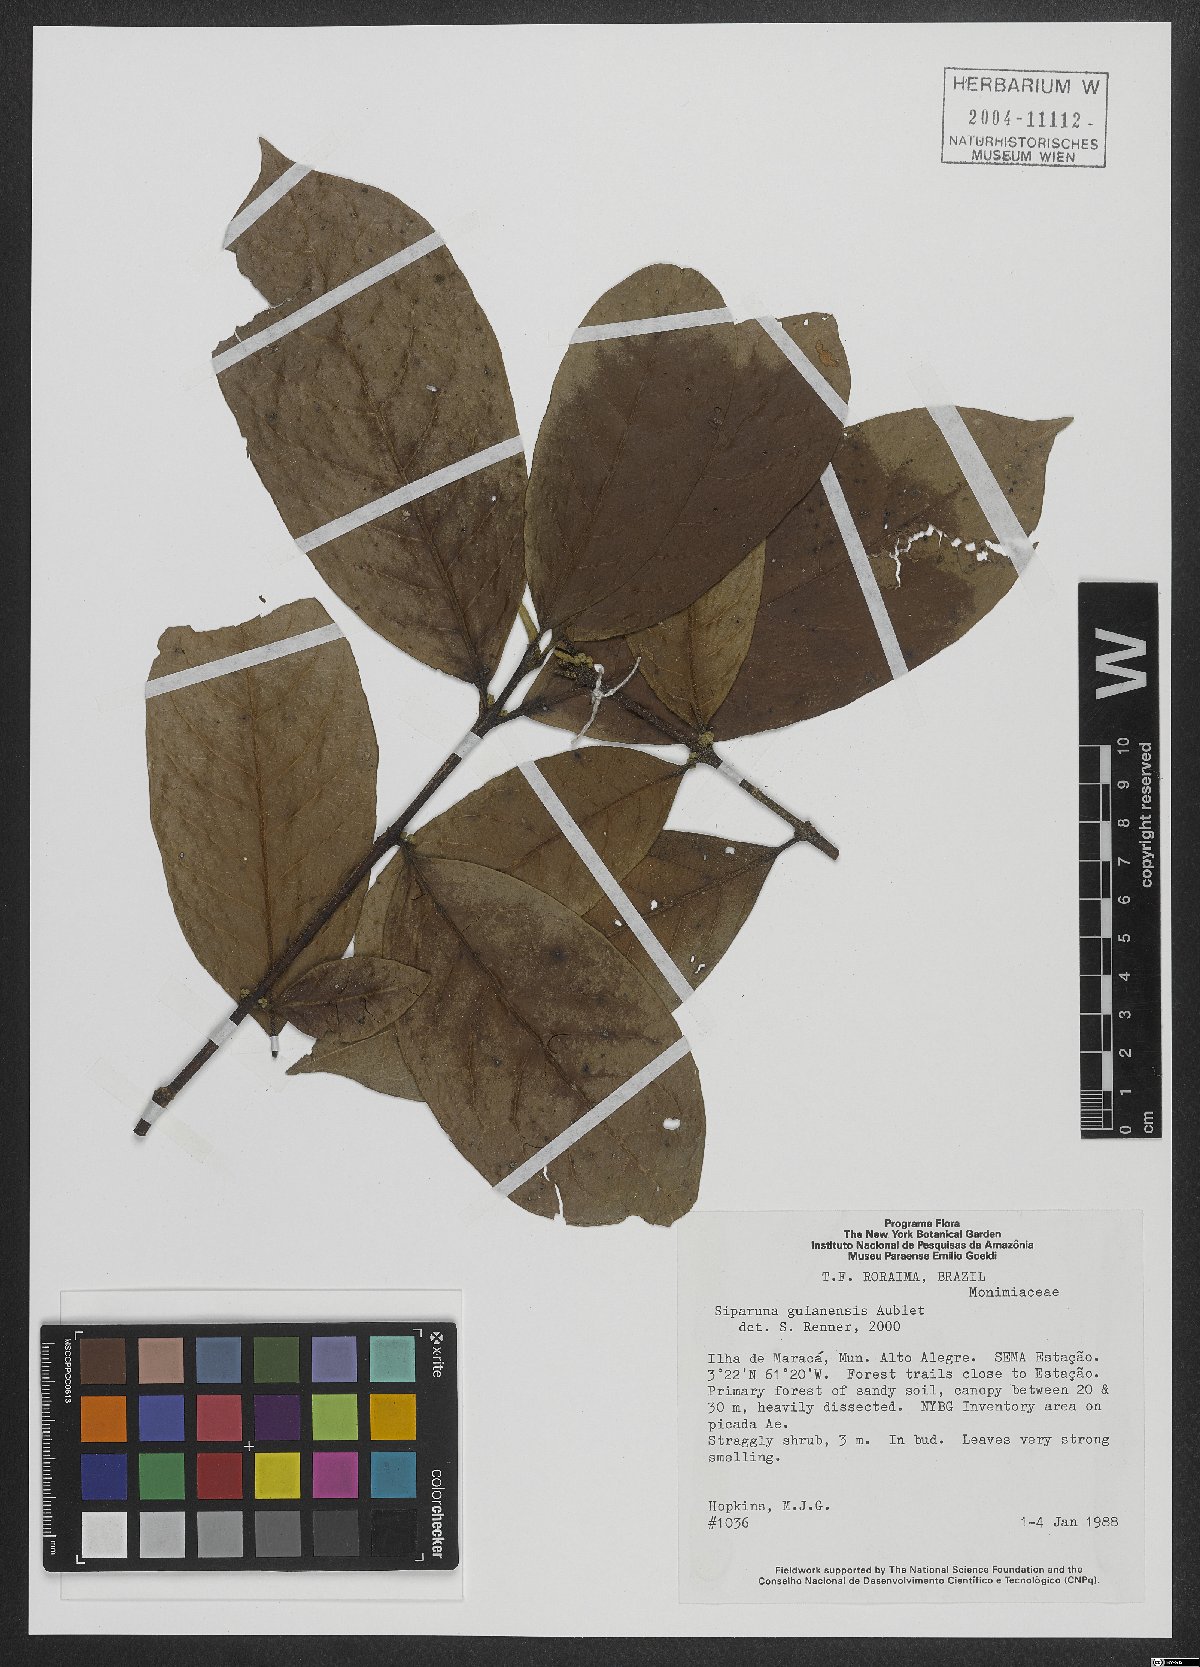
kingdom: Plantae
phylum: Tracheophyta
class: Magnoliopsida
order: Laurales
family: Siparunaceae
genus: Siparuna
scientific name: Siparuna guianensis
